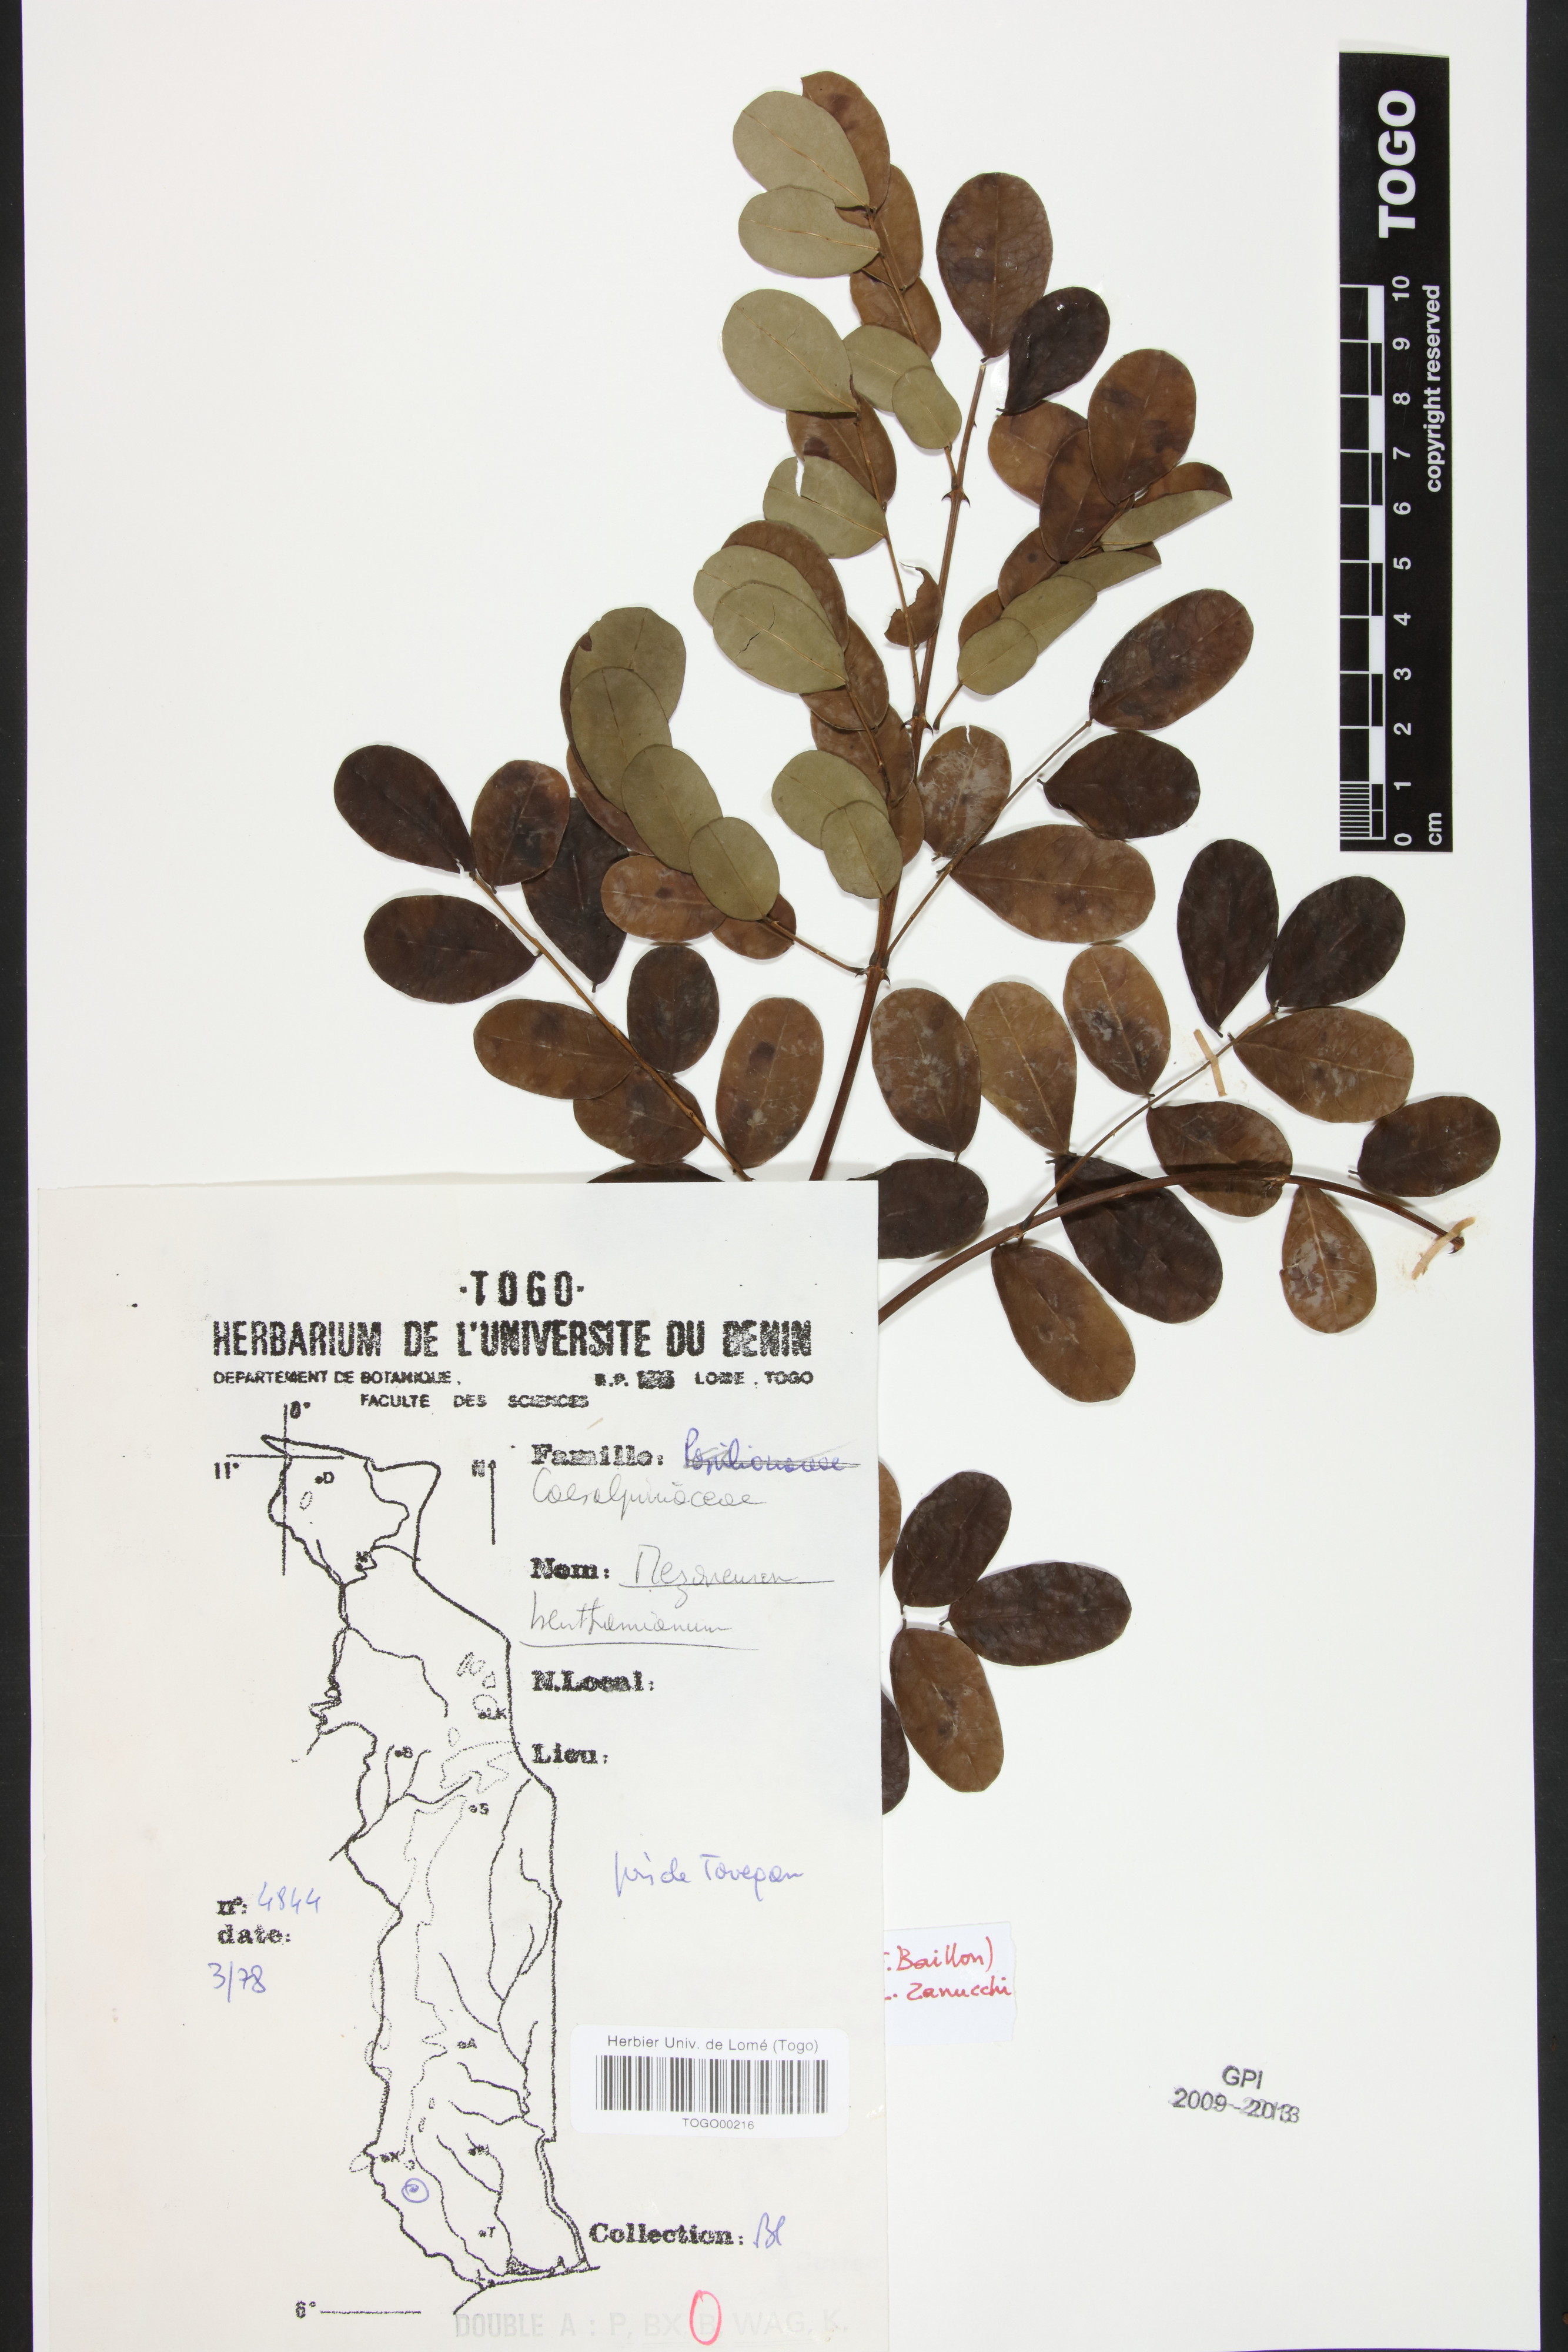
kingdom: Plantae
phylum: Tracheophyta
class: Magnoliopsida
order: Fabales
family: Fabaceae
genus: Mezoneuron
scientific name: Mezoneuron benthamianum
